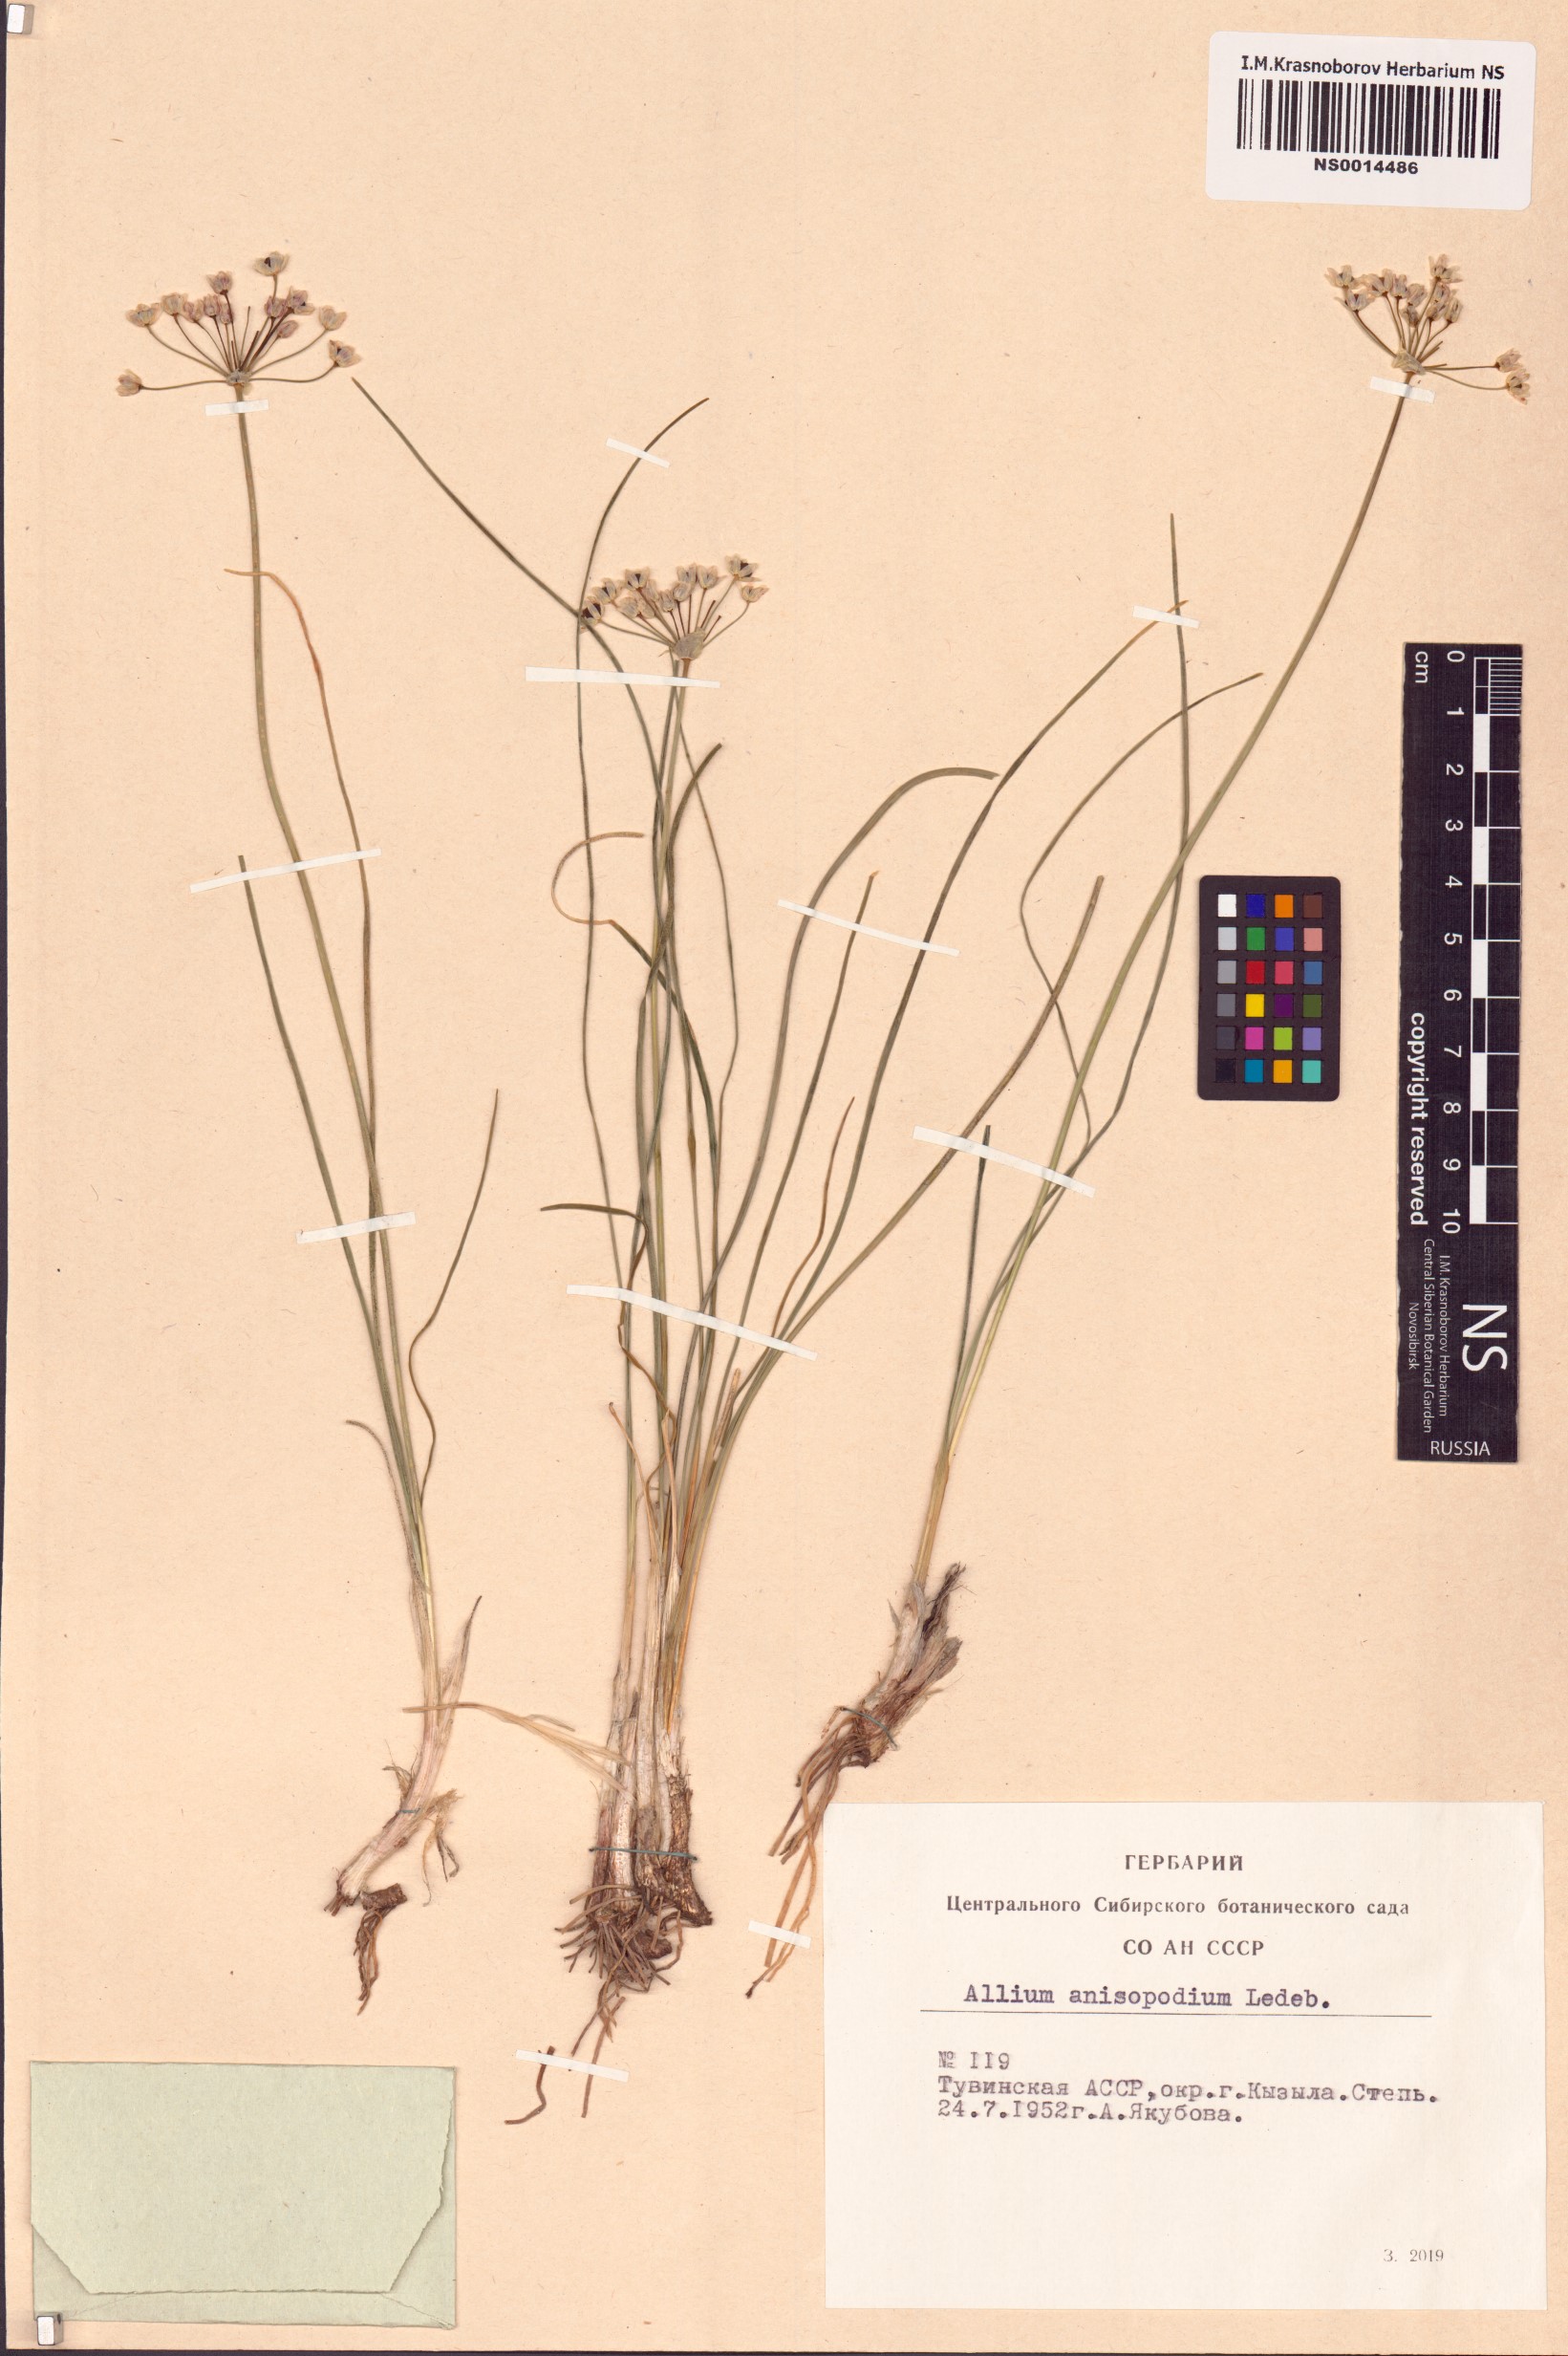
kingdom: Plantae
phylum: Tracheophyta
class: Liliopsida
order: Asparagales
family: Amaryllidaceae
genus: Allium
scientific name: Allium anisopodium
